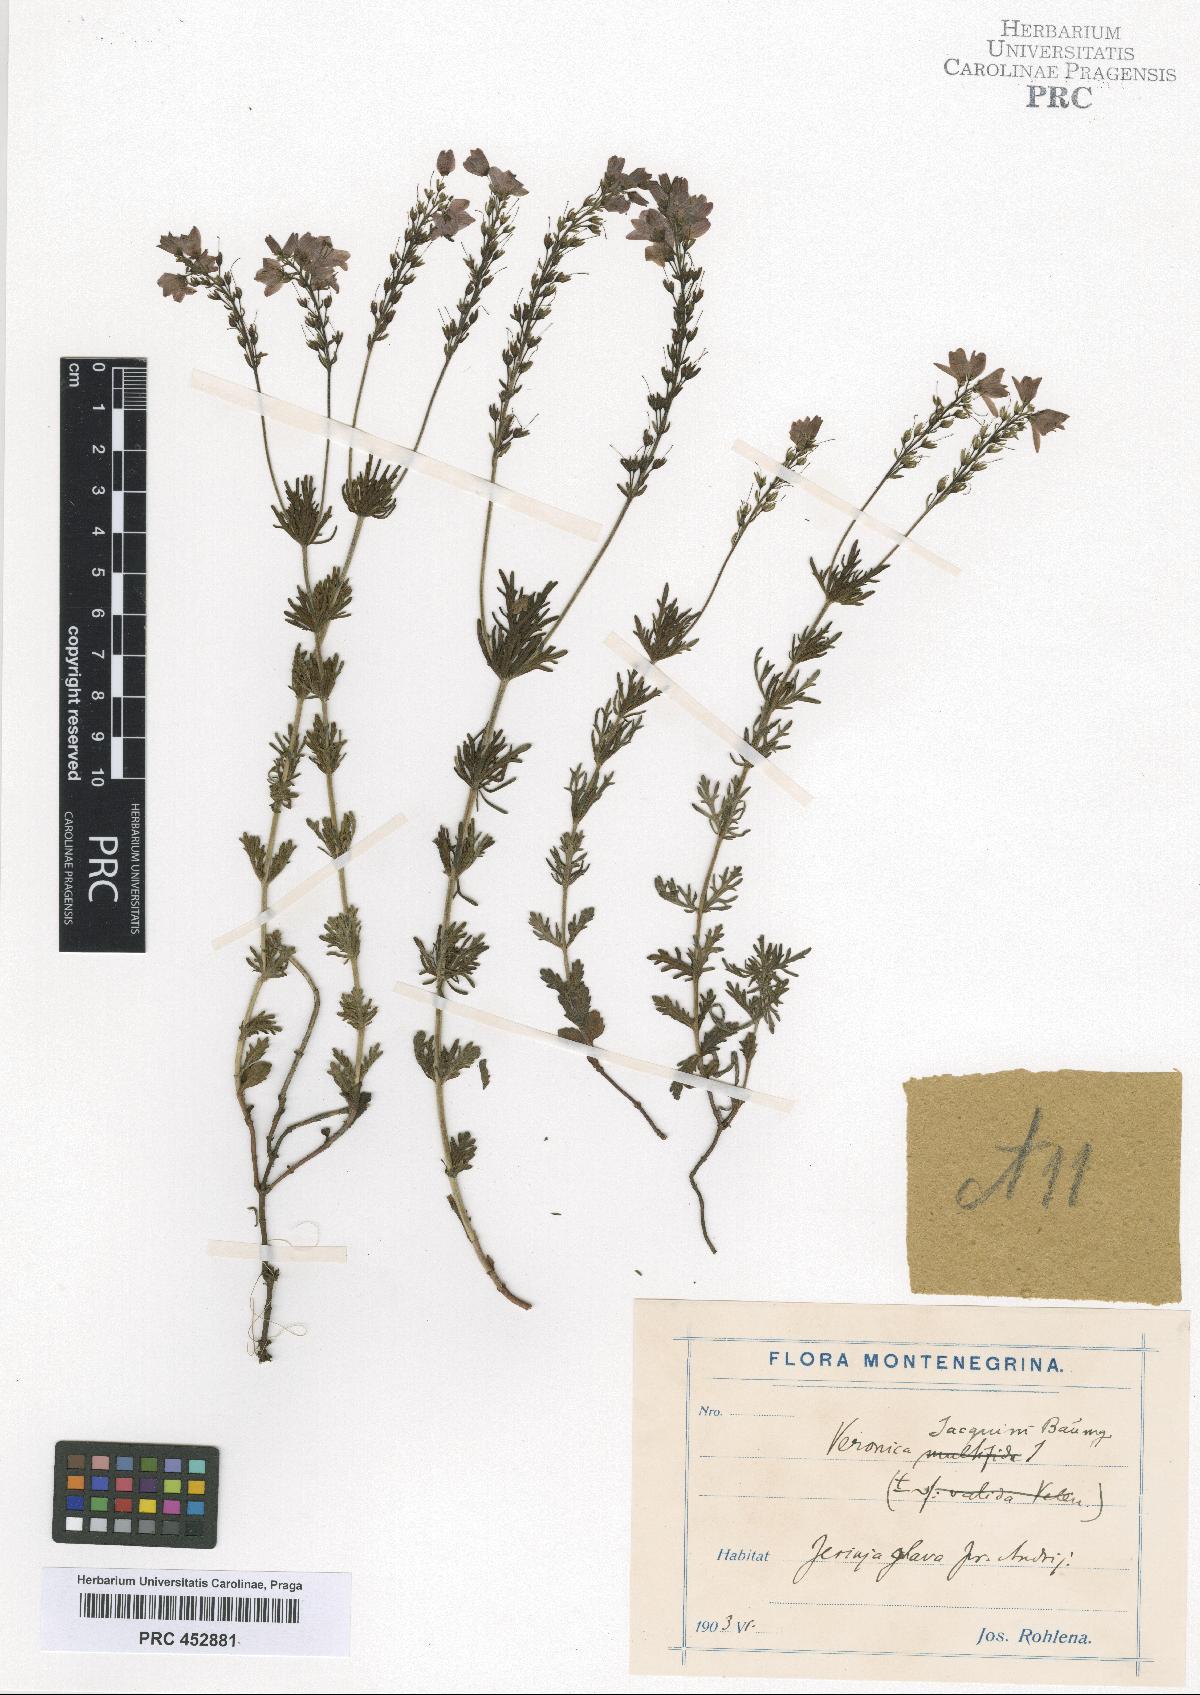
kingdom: Plantae
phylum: Tracheophyta
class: Magnoliopsida
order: Lamiales
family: Plantaginaceae
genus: Veronica
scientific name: Veronica austriaca
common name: Large speedwell
